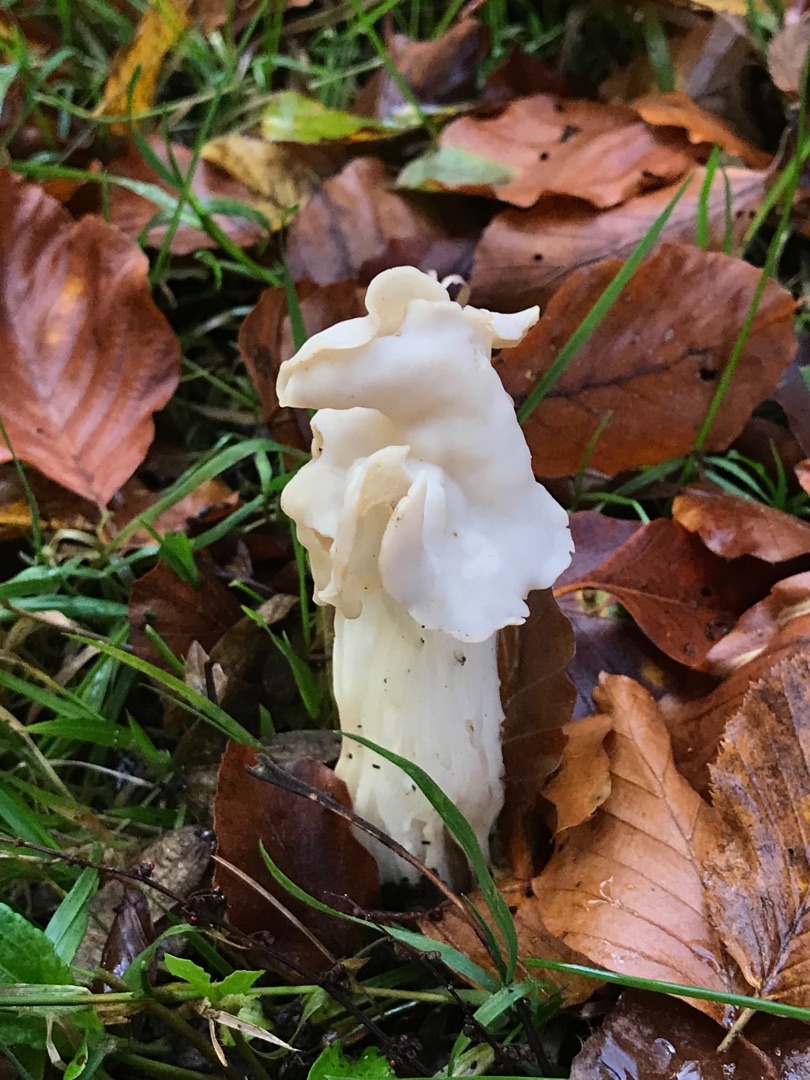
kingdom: Fungi
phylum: Ascomycota
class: Pezizomycetes
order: Pezizales
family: Helvellaceae
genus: Helvella
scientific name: Helvella crispa
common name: Kruset foldhat
